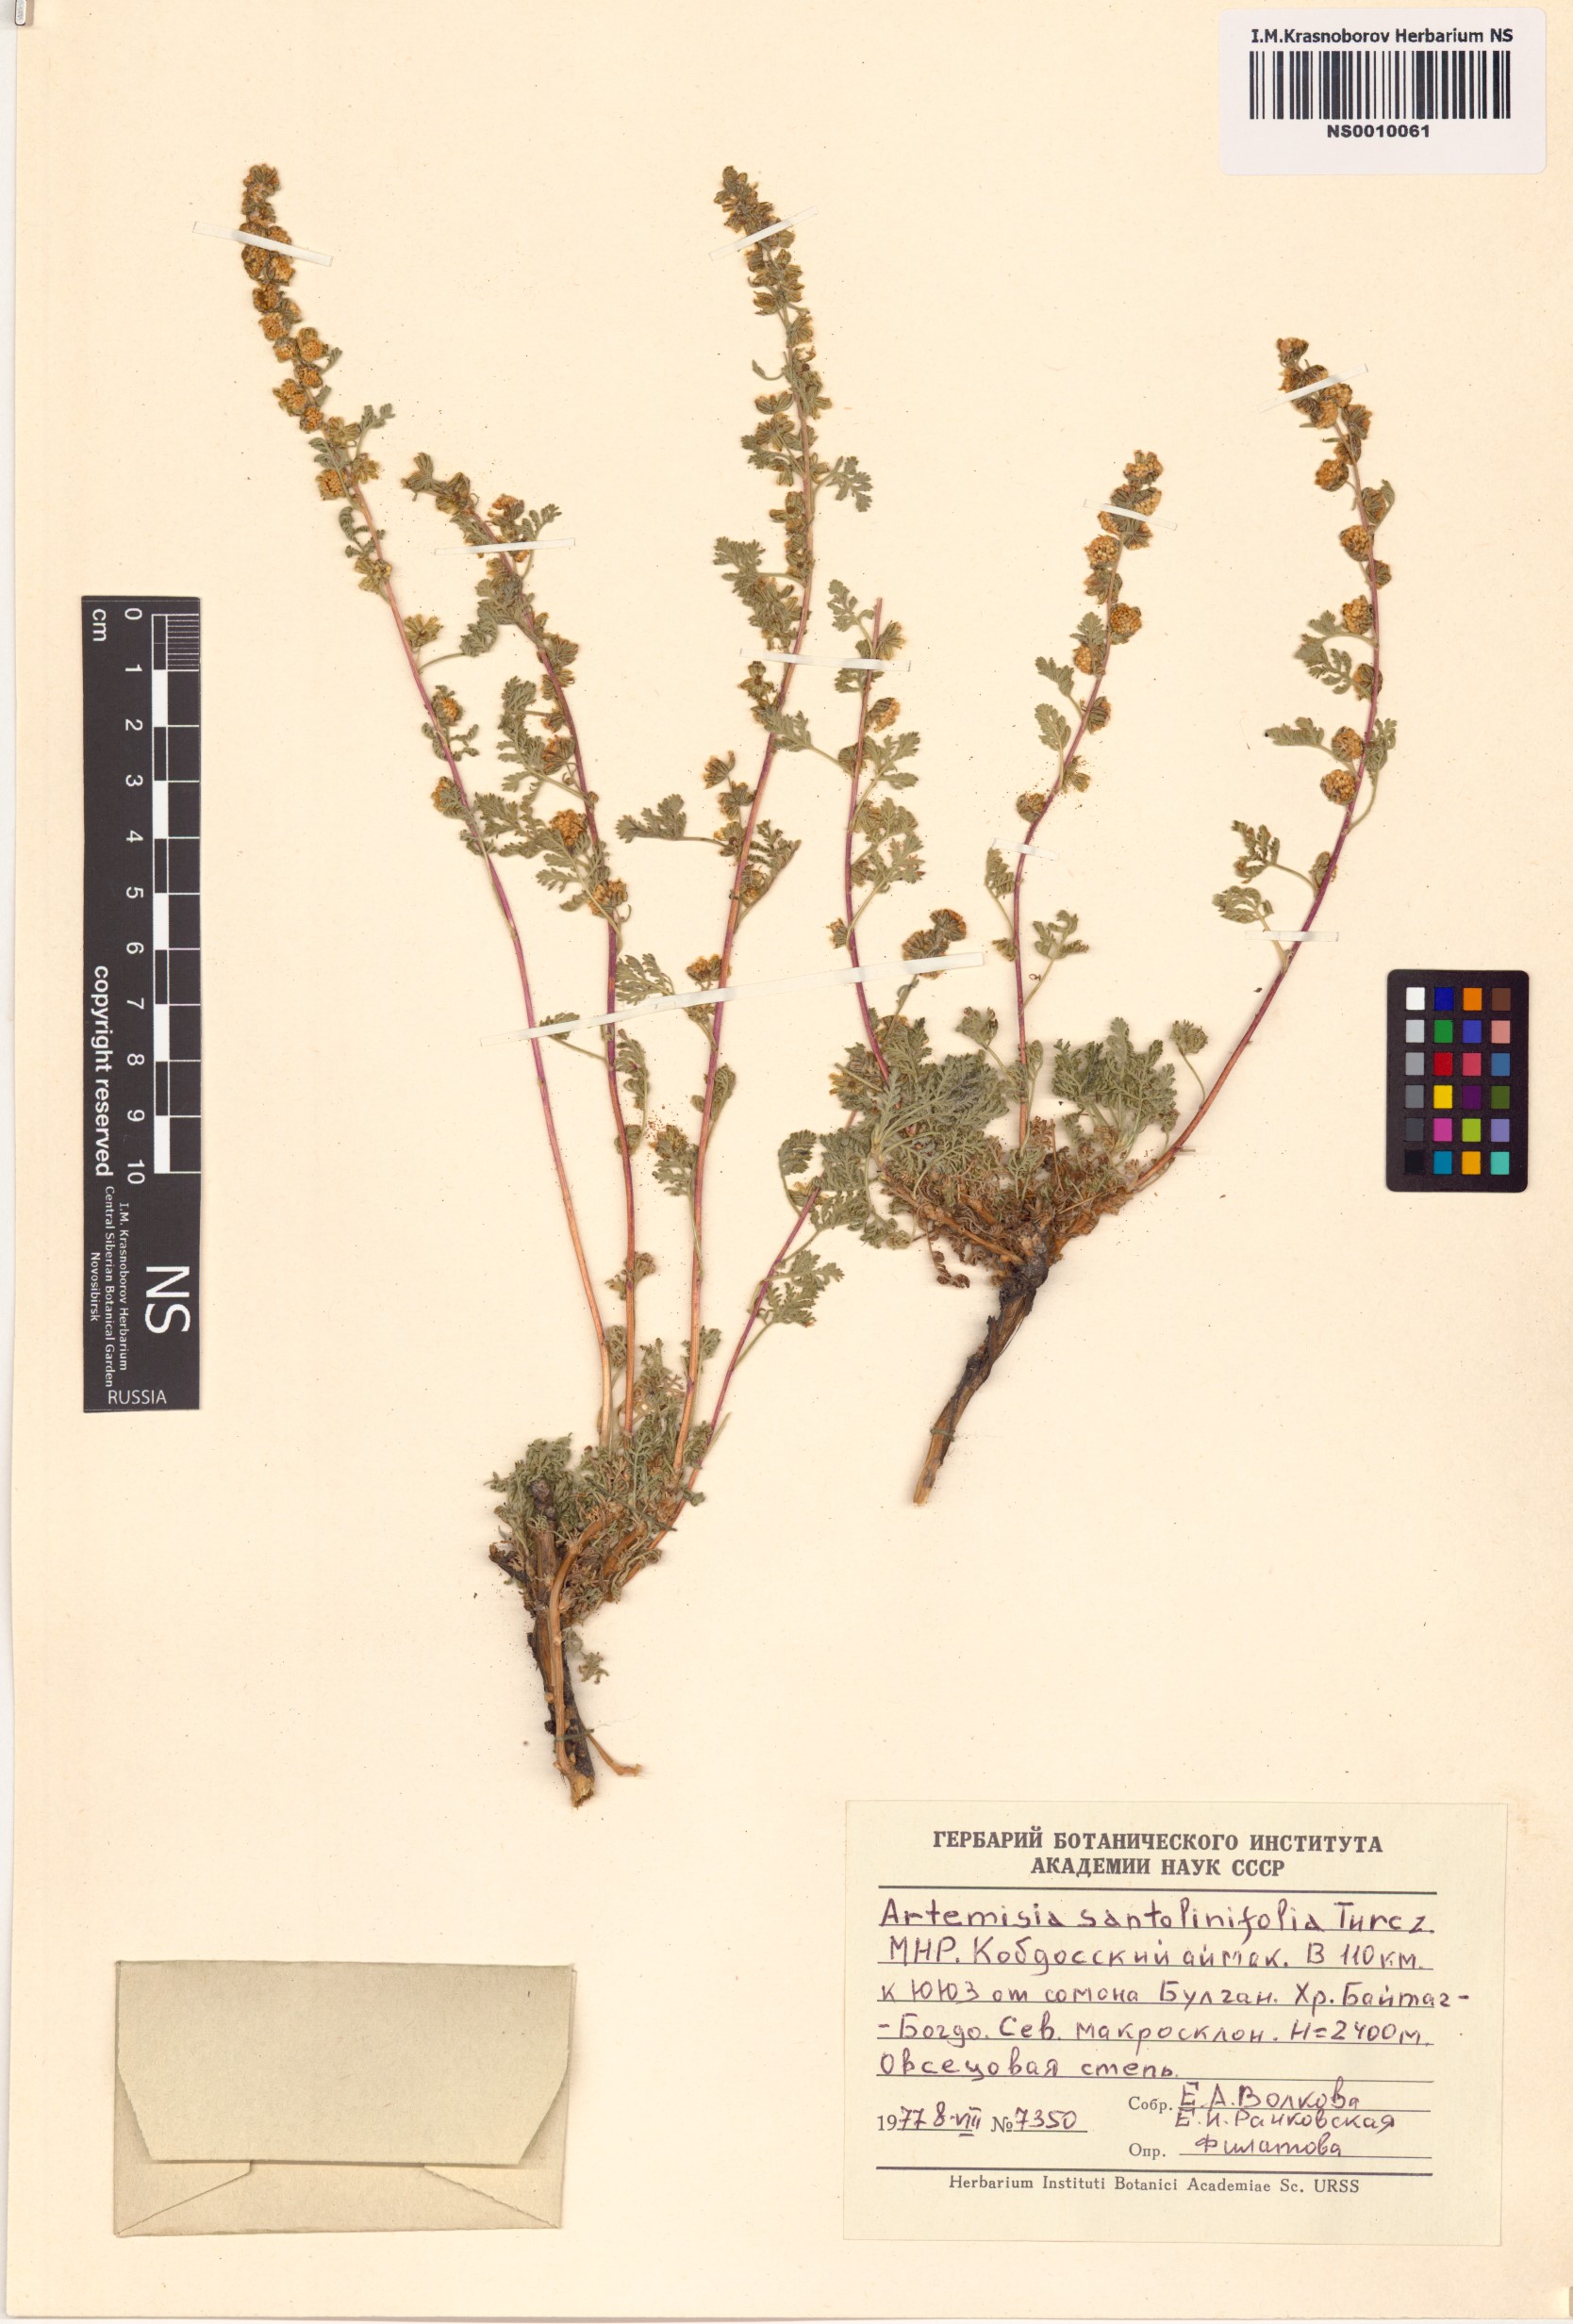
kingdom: Plantae
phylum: Tracheophyta
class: Magnoliopsida
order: Asterales
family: Asteraceae
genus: Artemisia
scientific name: Artemisia stechmanniana
